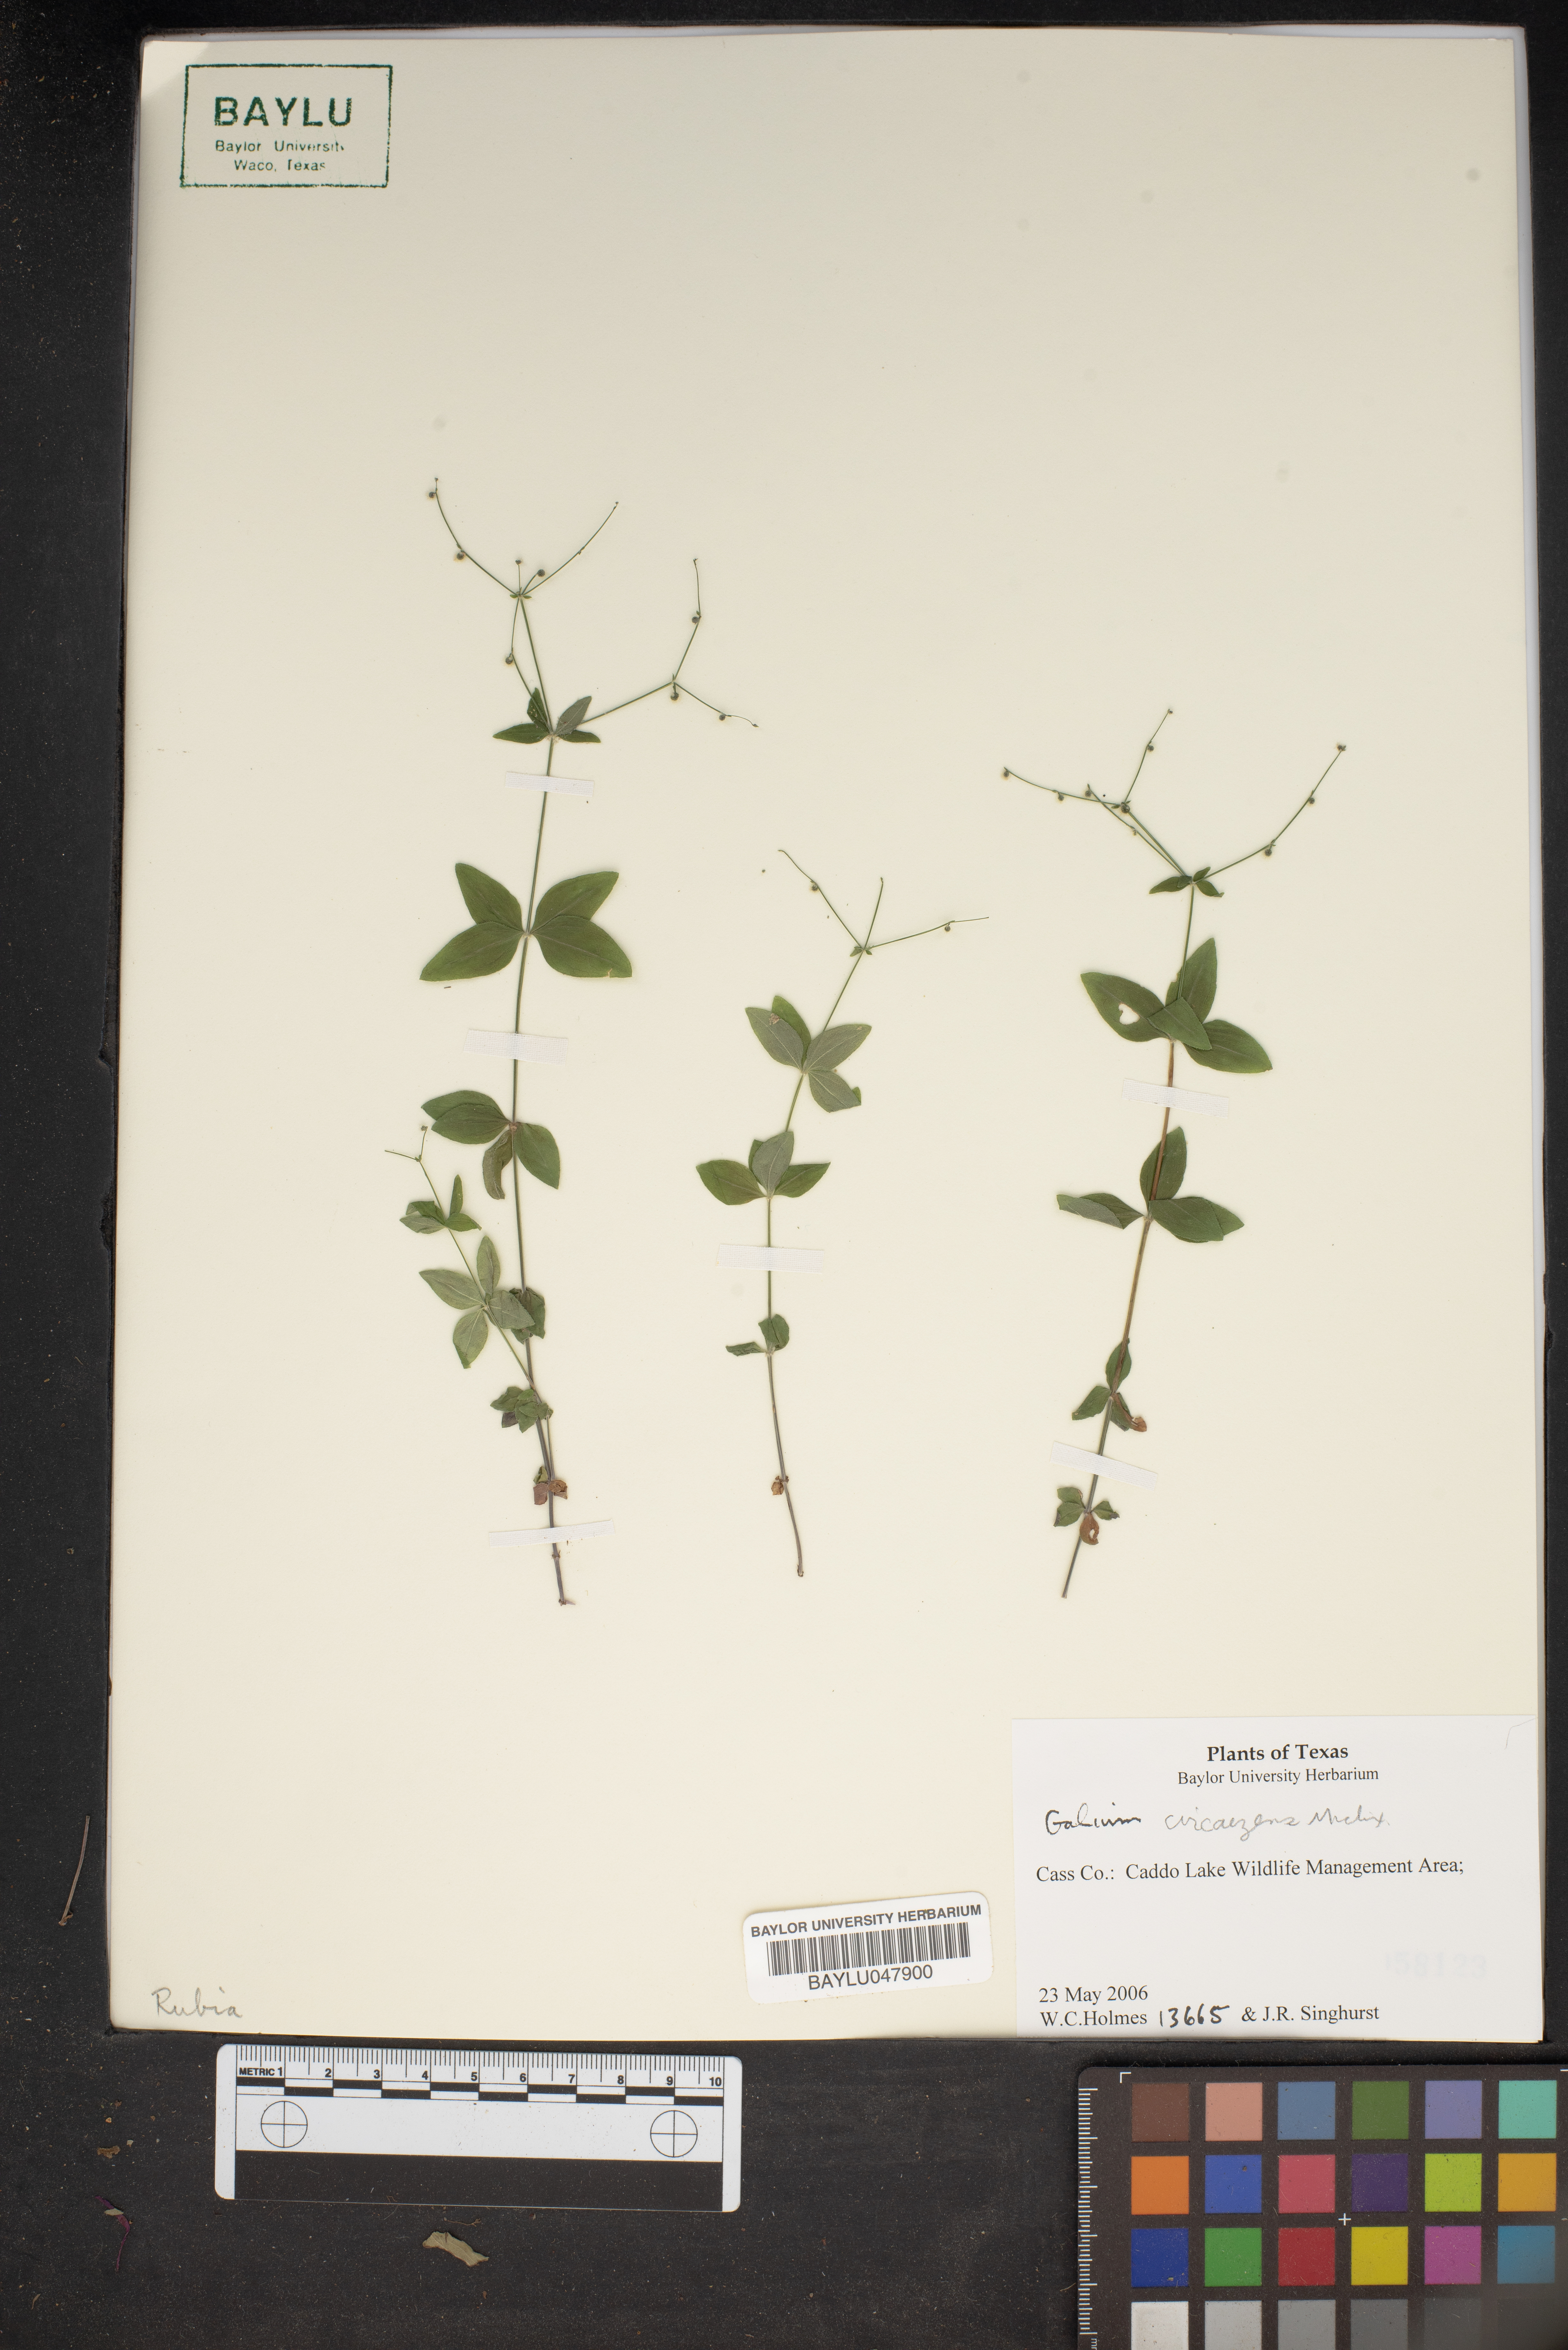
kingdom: Plantae
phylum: Tracheophyta
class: Magnoliopsida
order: Gentianales
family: Rubiaceae
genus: Galium
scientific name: Galium circaezans
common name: Forest bedstraw
